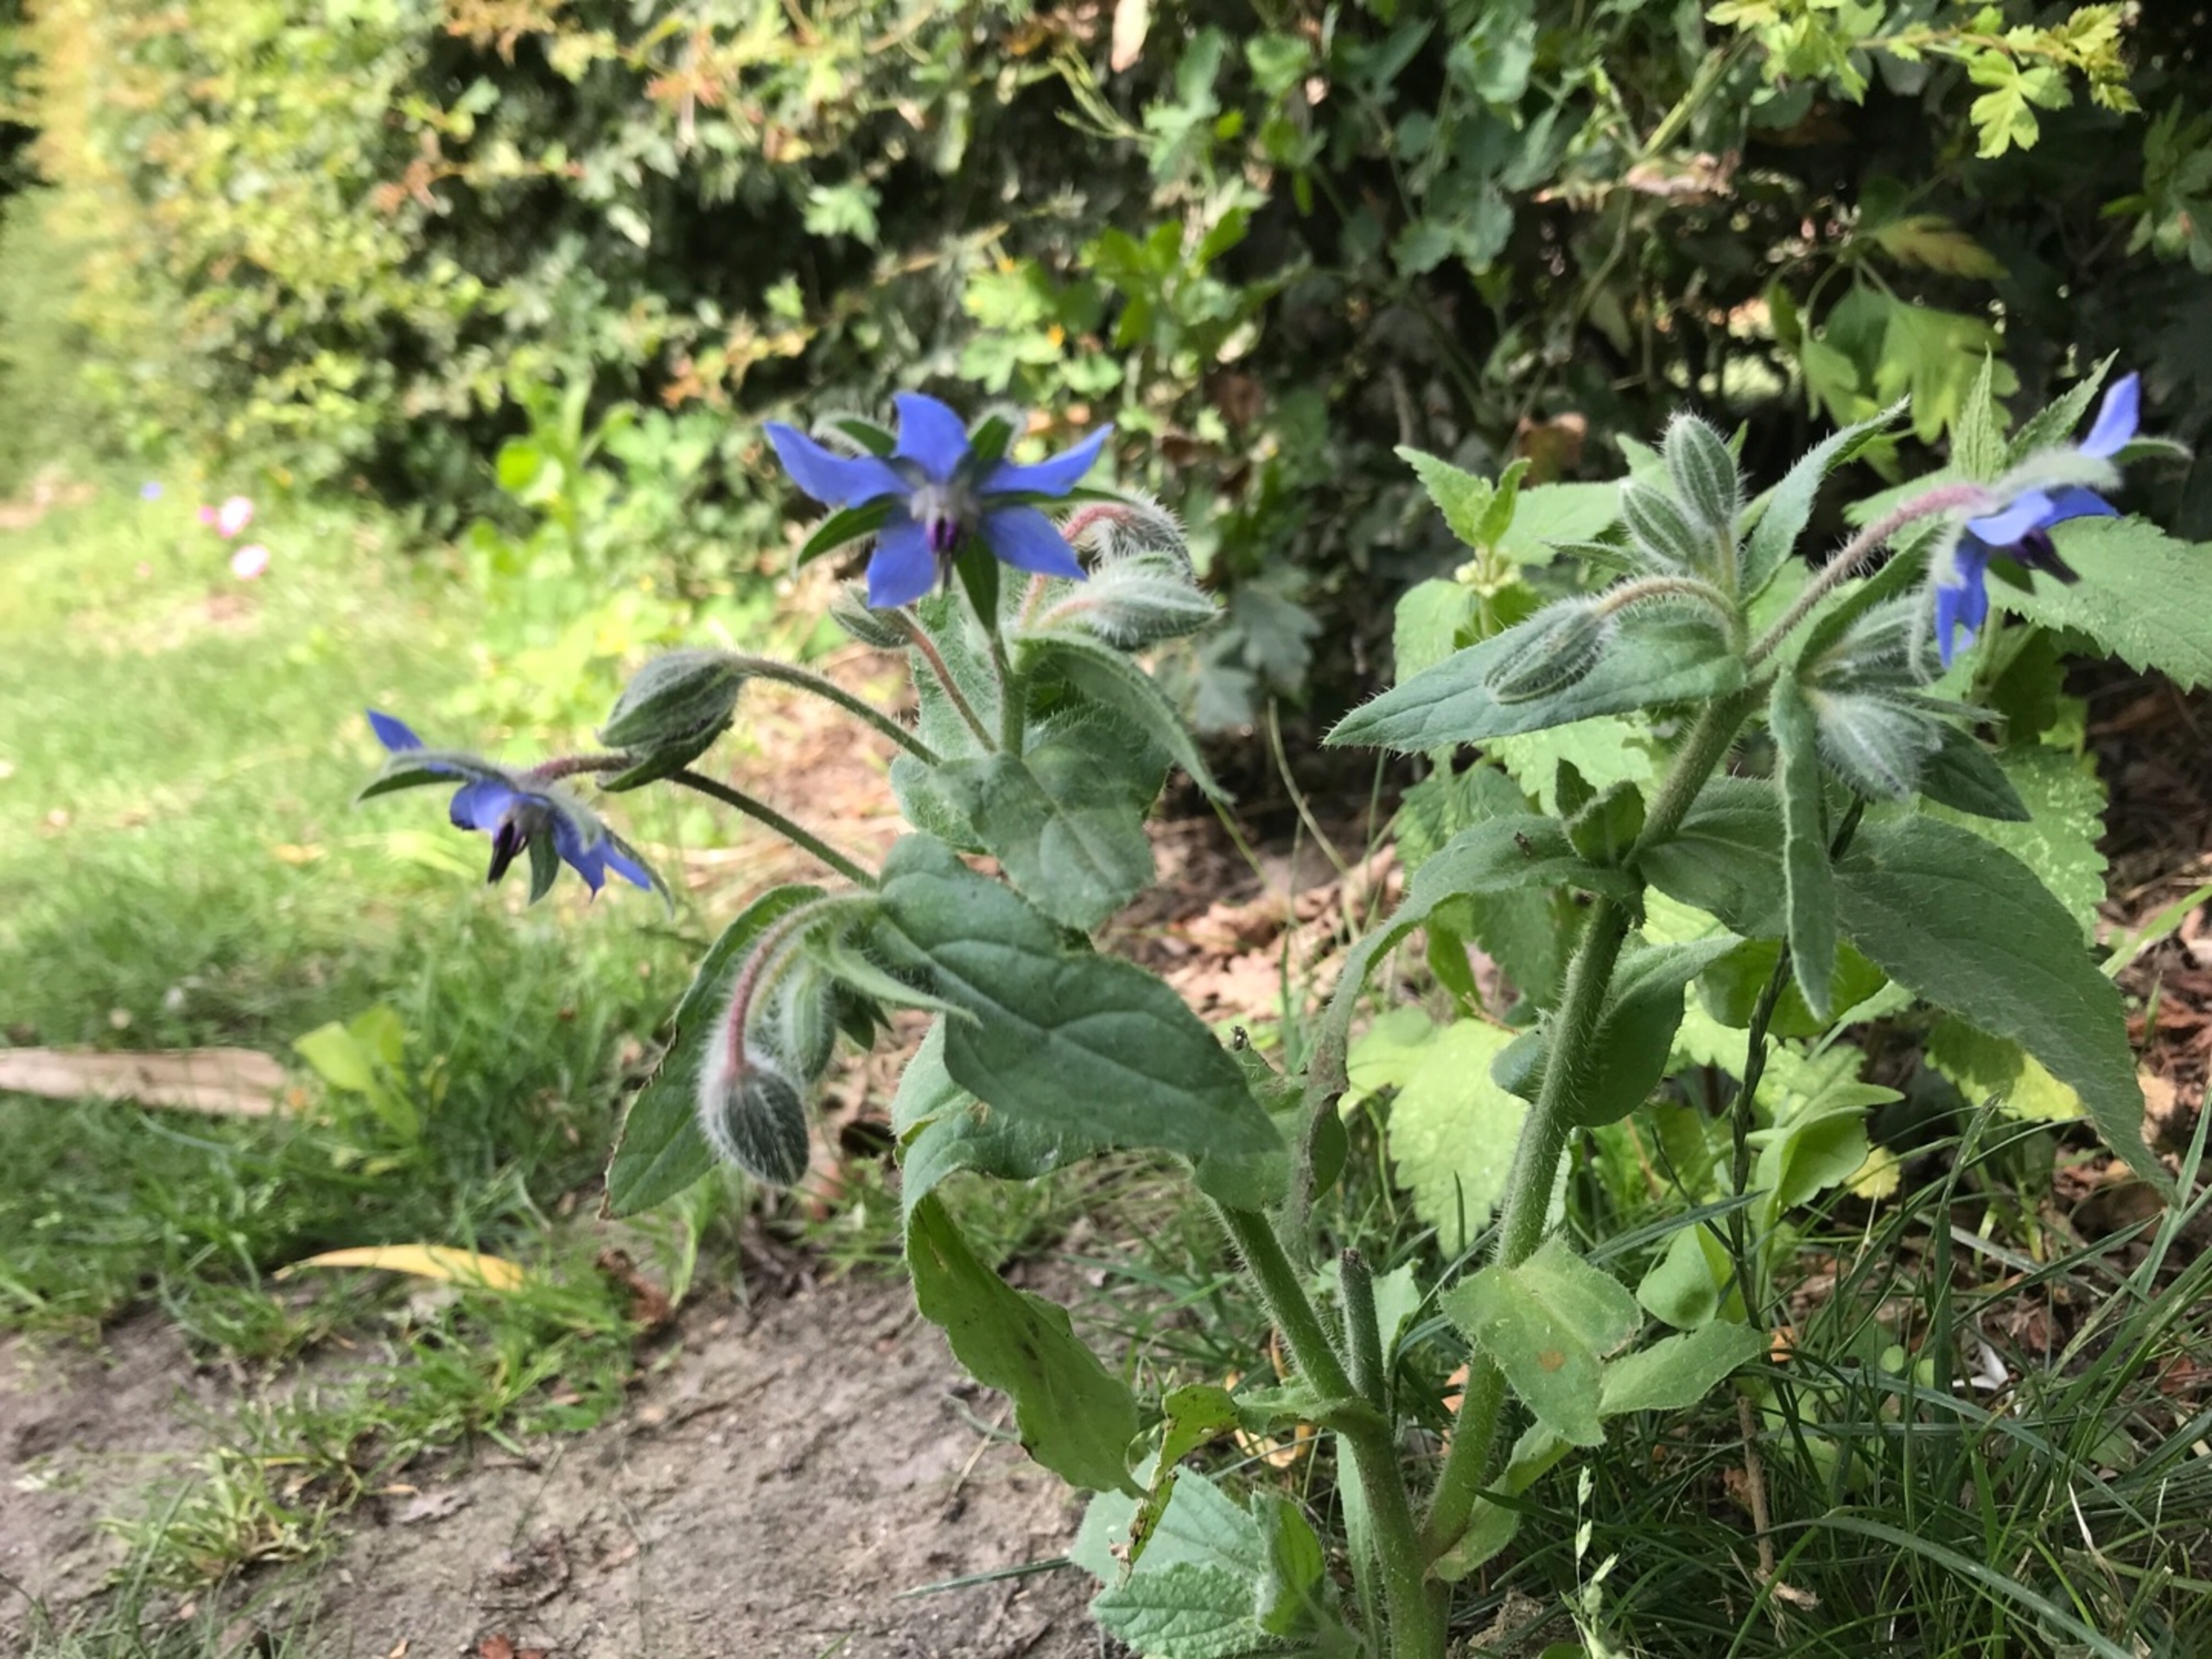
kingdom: Plantae
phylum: Tracheophyta
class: Magnoliopsida
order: Boraginales
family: Boraginaceae
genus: Borago
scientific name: Borago officinalis
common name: Hjulkrone
